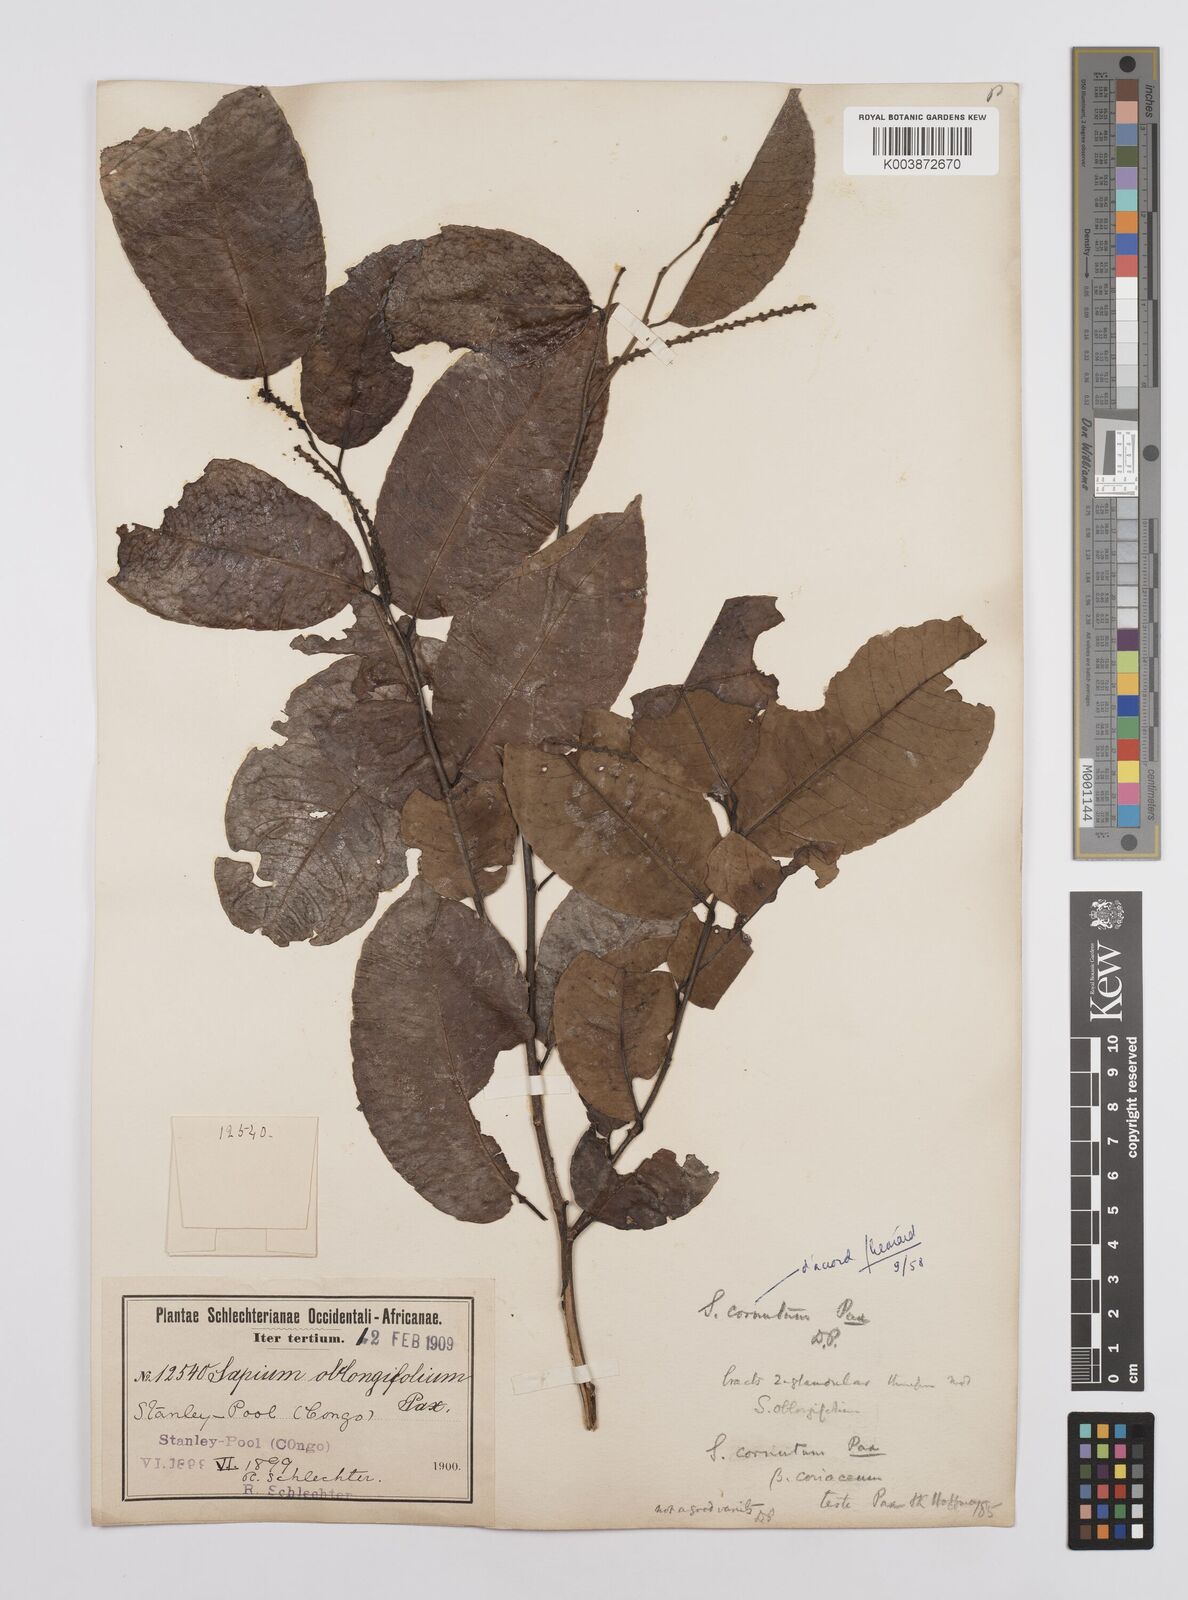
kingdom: Plantae
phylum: Tracheophyta
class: Magnoliopsida
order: Malpighiales
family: Euphorbiaceae
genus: Sclerocroton
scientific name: Sclerocroton cornutus
